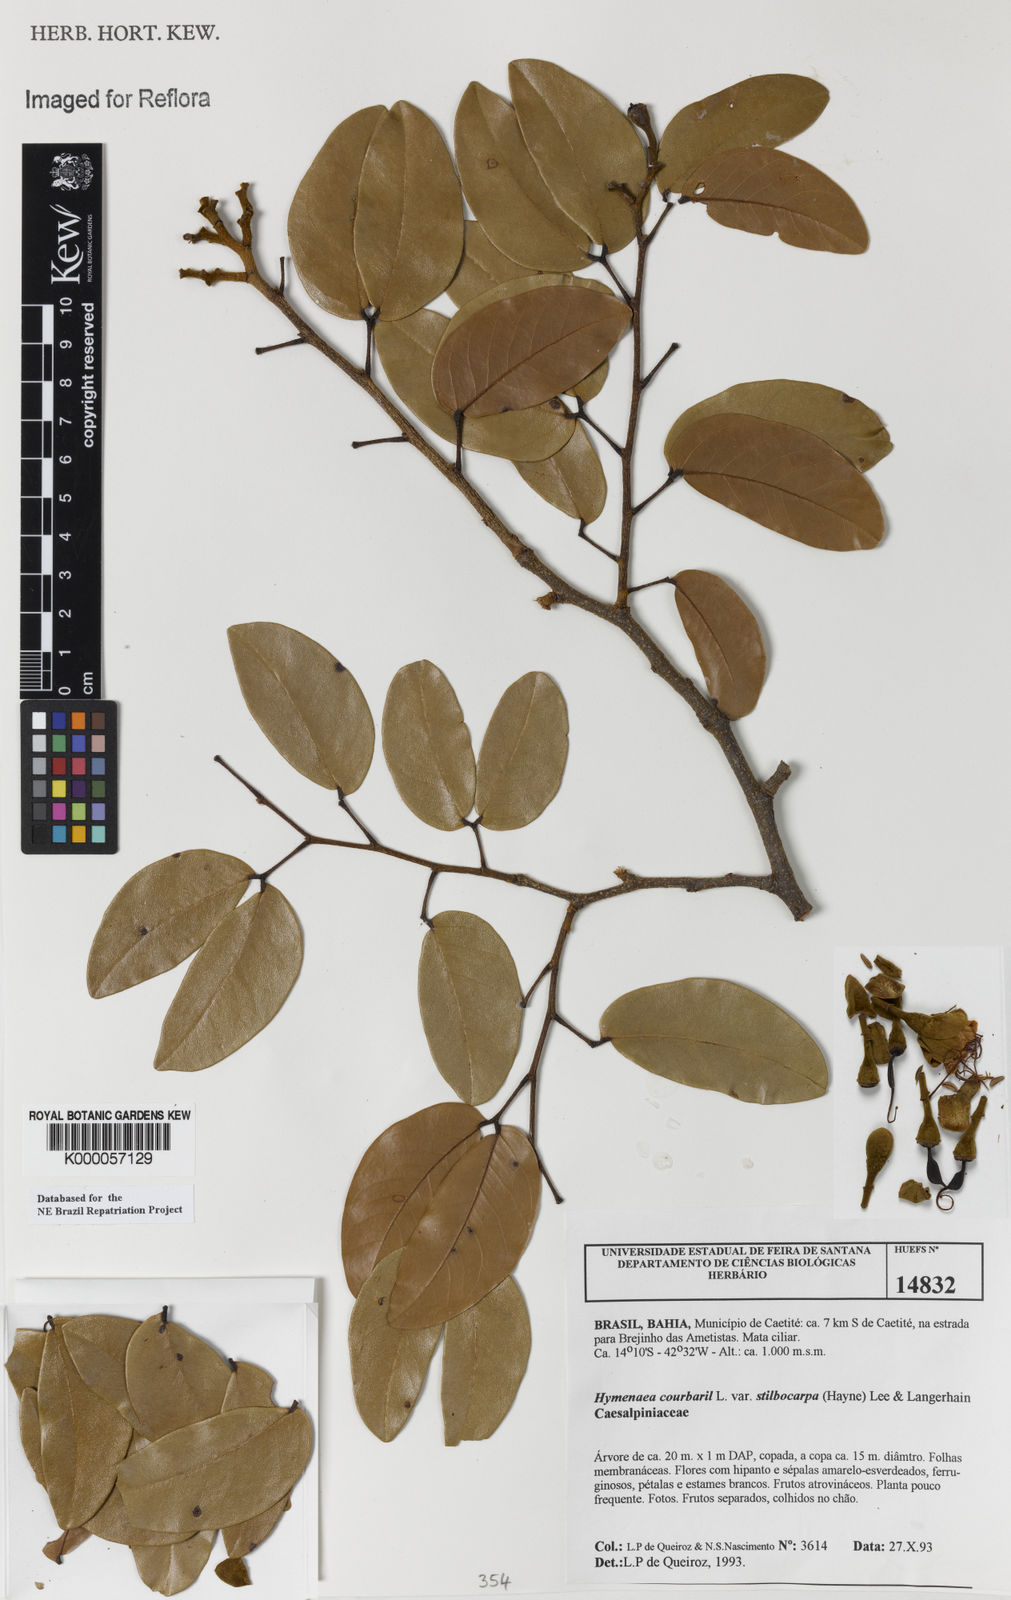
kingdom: Plantae
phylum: Tracheophyta
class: Magnoliopsida
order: Fabales
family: Fabaceae
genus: Hymenaea
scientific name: Hymenaea courbaril
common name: Brazilian copal
